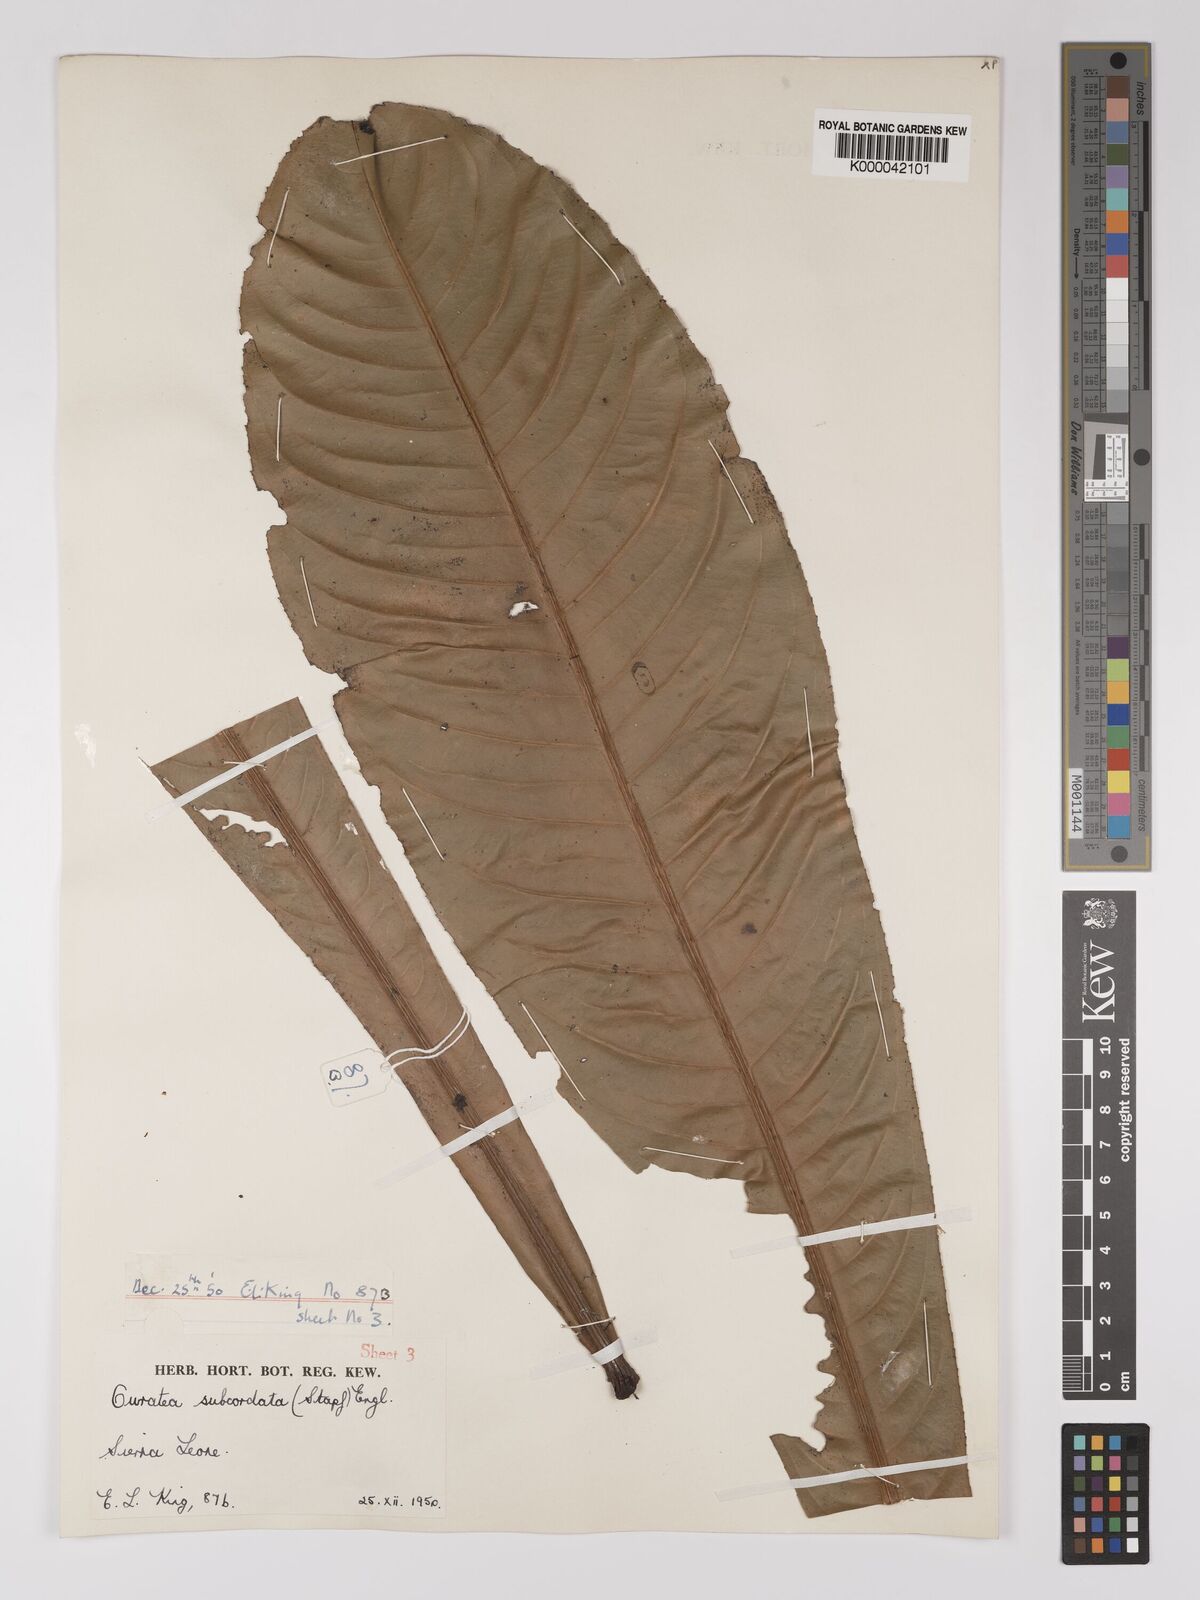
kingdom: Plantae
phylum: Tracheophyta
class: Magnoliopsida
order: Malpighiales
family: Ochnaceae
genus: Campylospermum
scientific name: Campylospermum subcordatum
